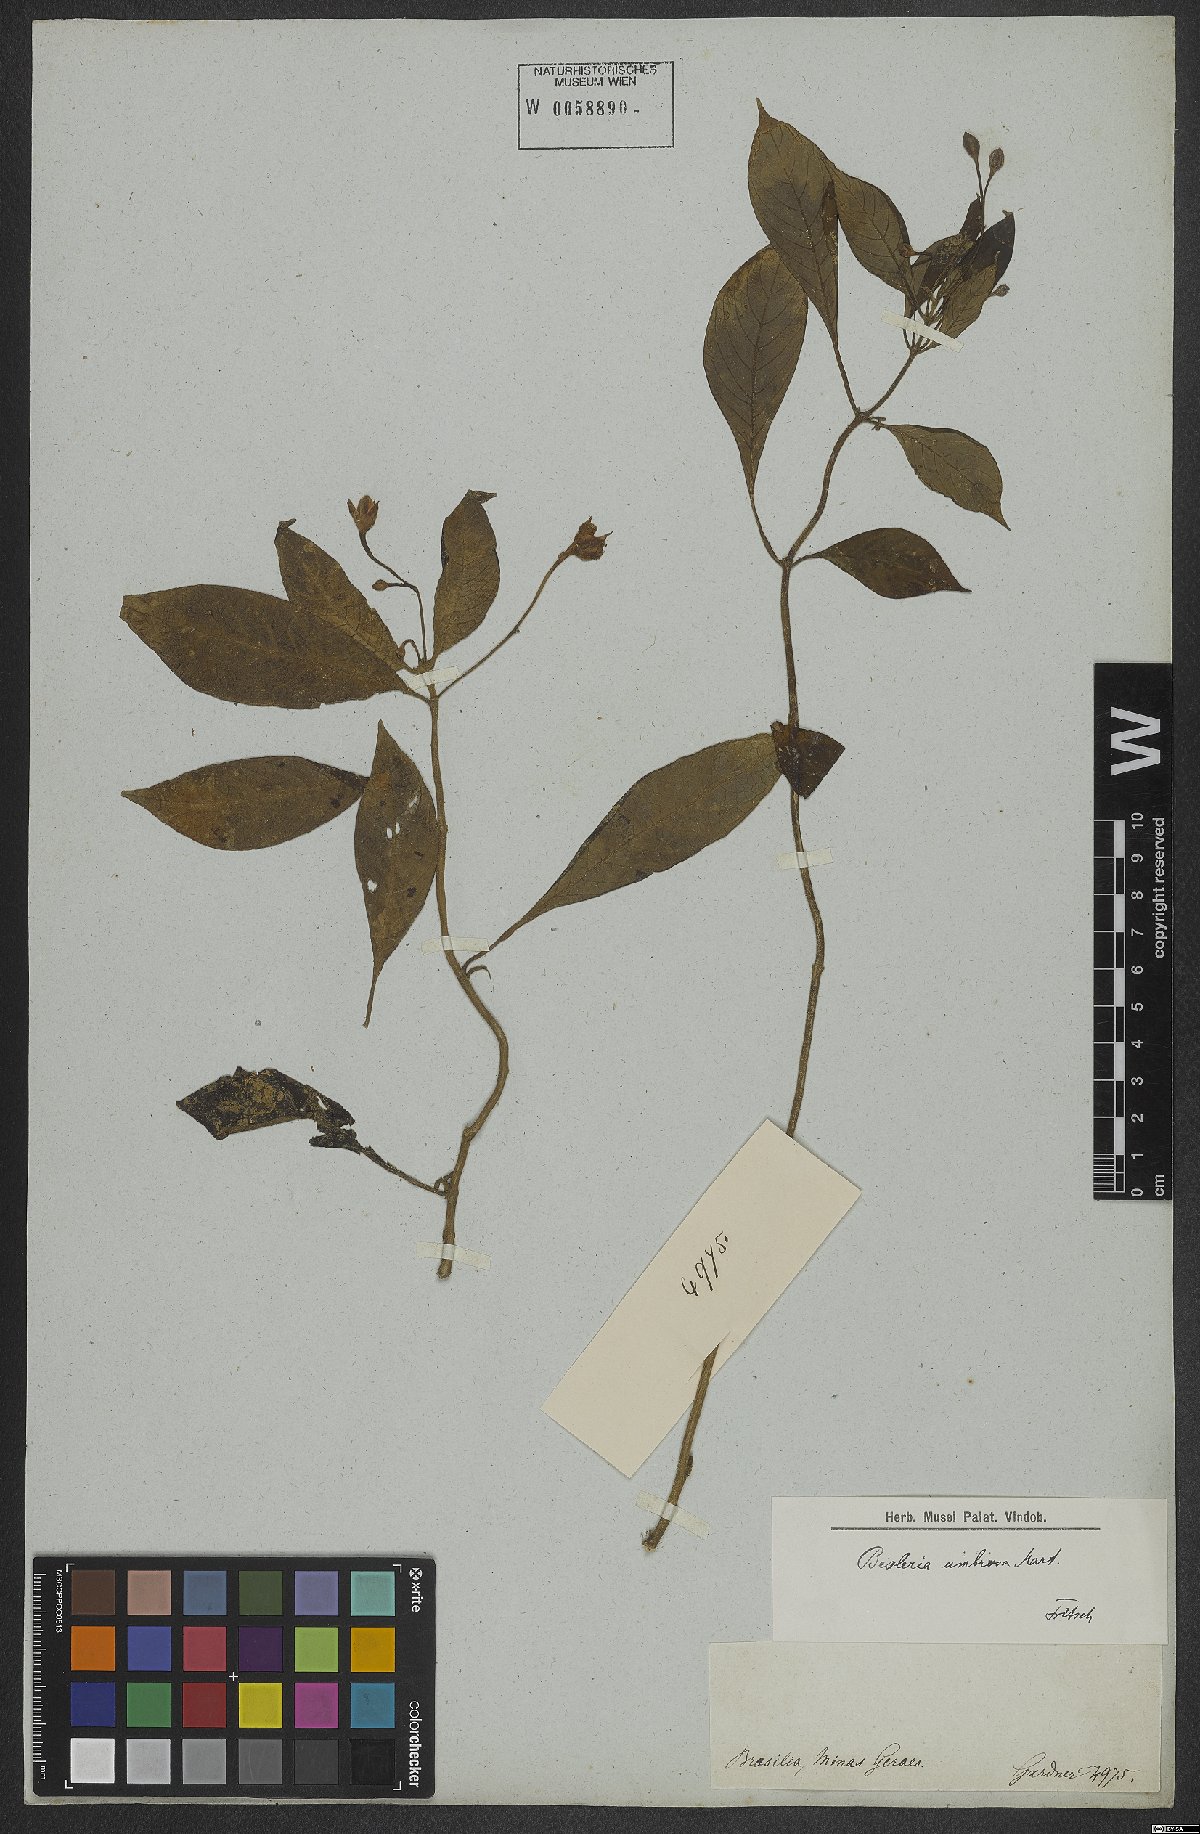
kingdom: Plantae
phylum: Tracheophyta
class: Magnoliopsida
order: Lamiales
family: Gesneriaceae
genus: Besleria
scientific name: Besleria umbrosa
